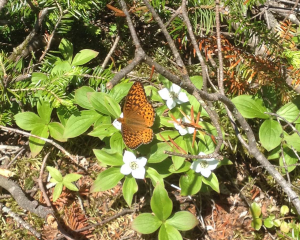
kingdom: Animalia
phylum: Arthropoda
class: Insecta
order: Lepidoptera
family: Nymphalidae
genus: Speyeria
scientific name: Speyeria atlantis
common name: Atlantis Fritillary
